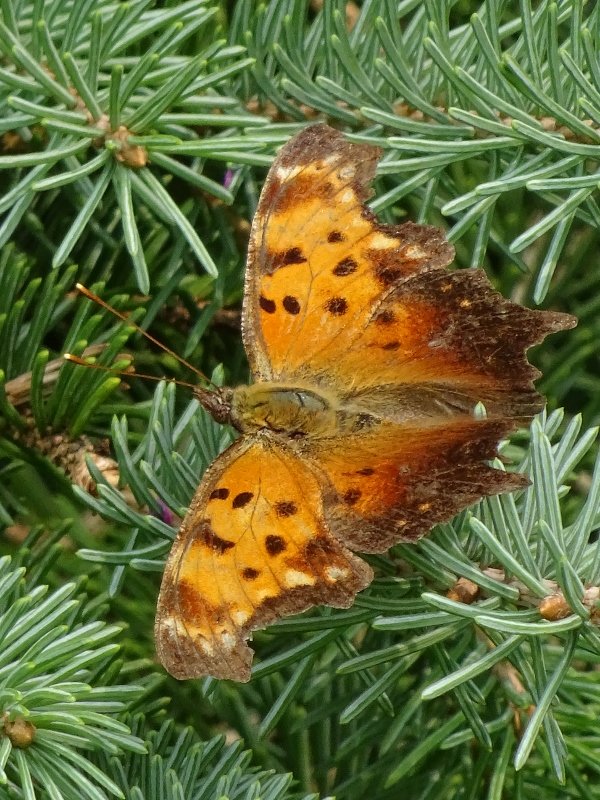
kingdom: Animalia
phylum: Arthropoda
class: Insecta
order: Lepidoptera
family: Nymphalidae
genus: Polygonia
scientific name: Polygonia progne
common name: Gray Comma
